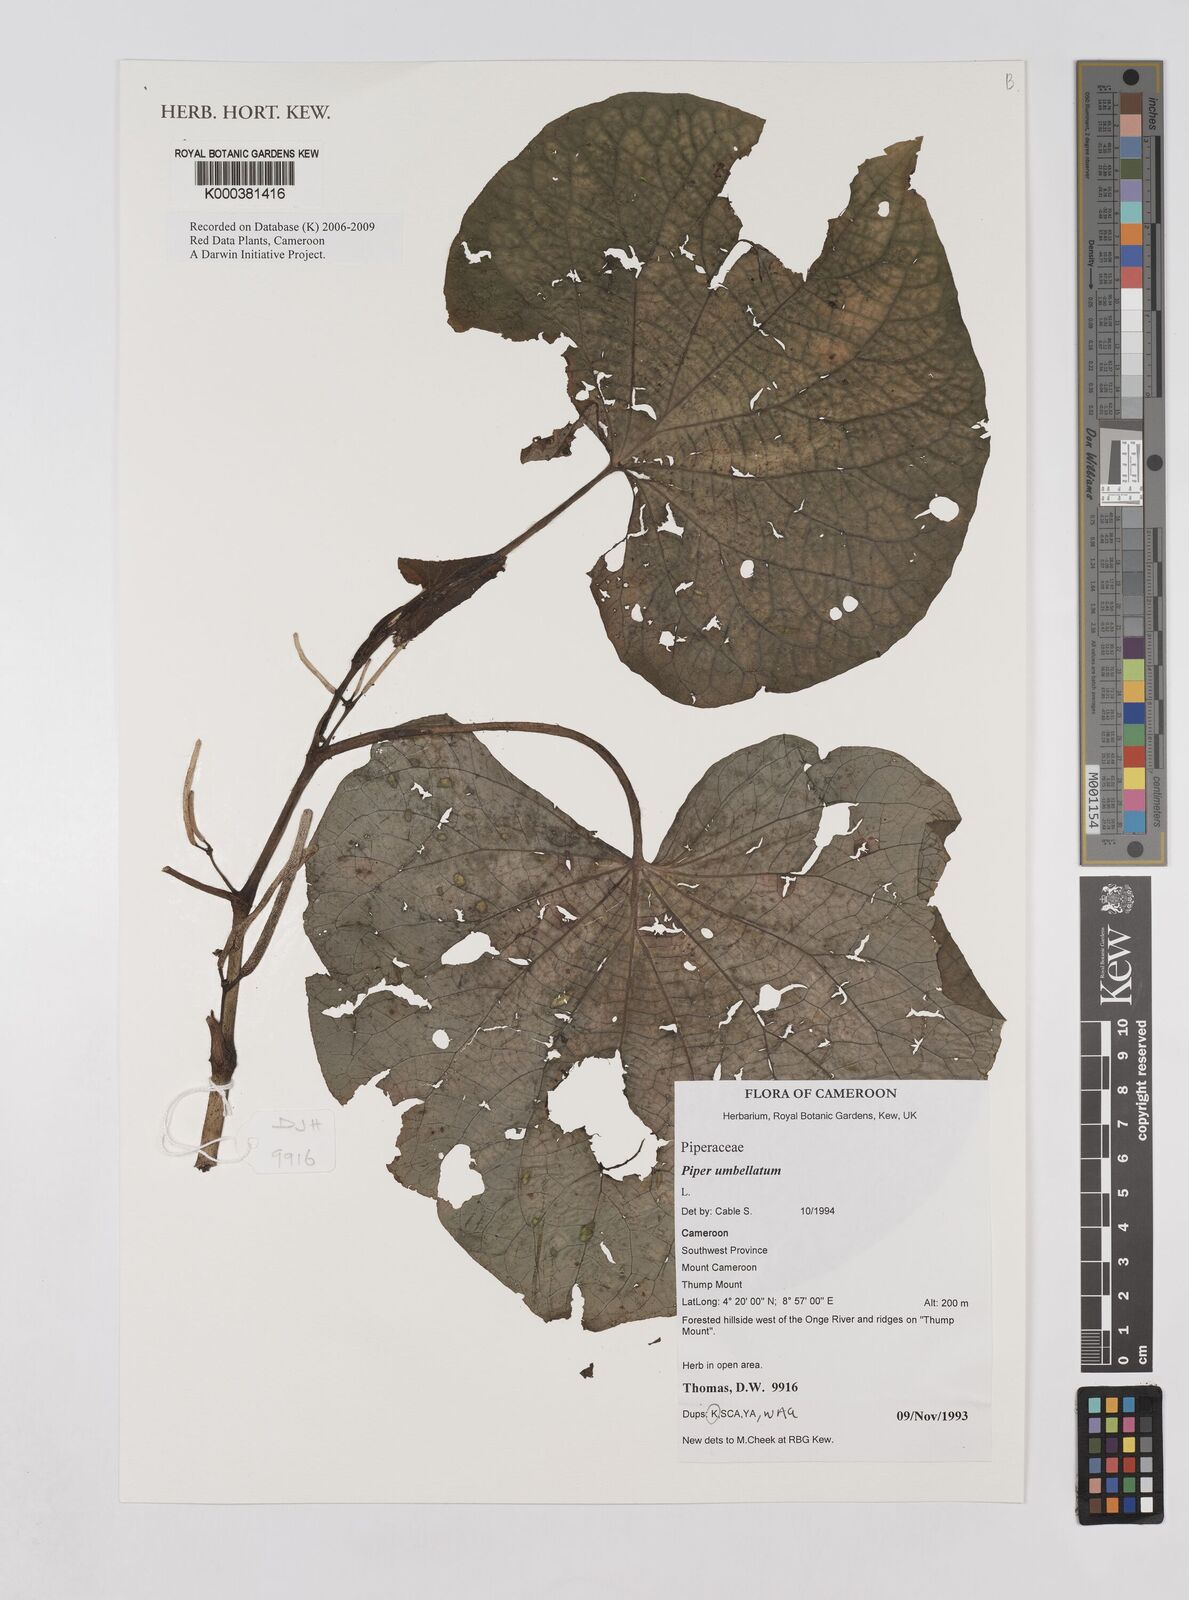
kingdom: Plantae
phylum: Tracheophyta
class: Magnoliopsida
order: Piperales
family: Piperaceae
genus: Piper
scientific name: Piper umbellatum
